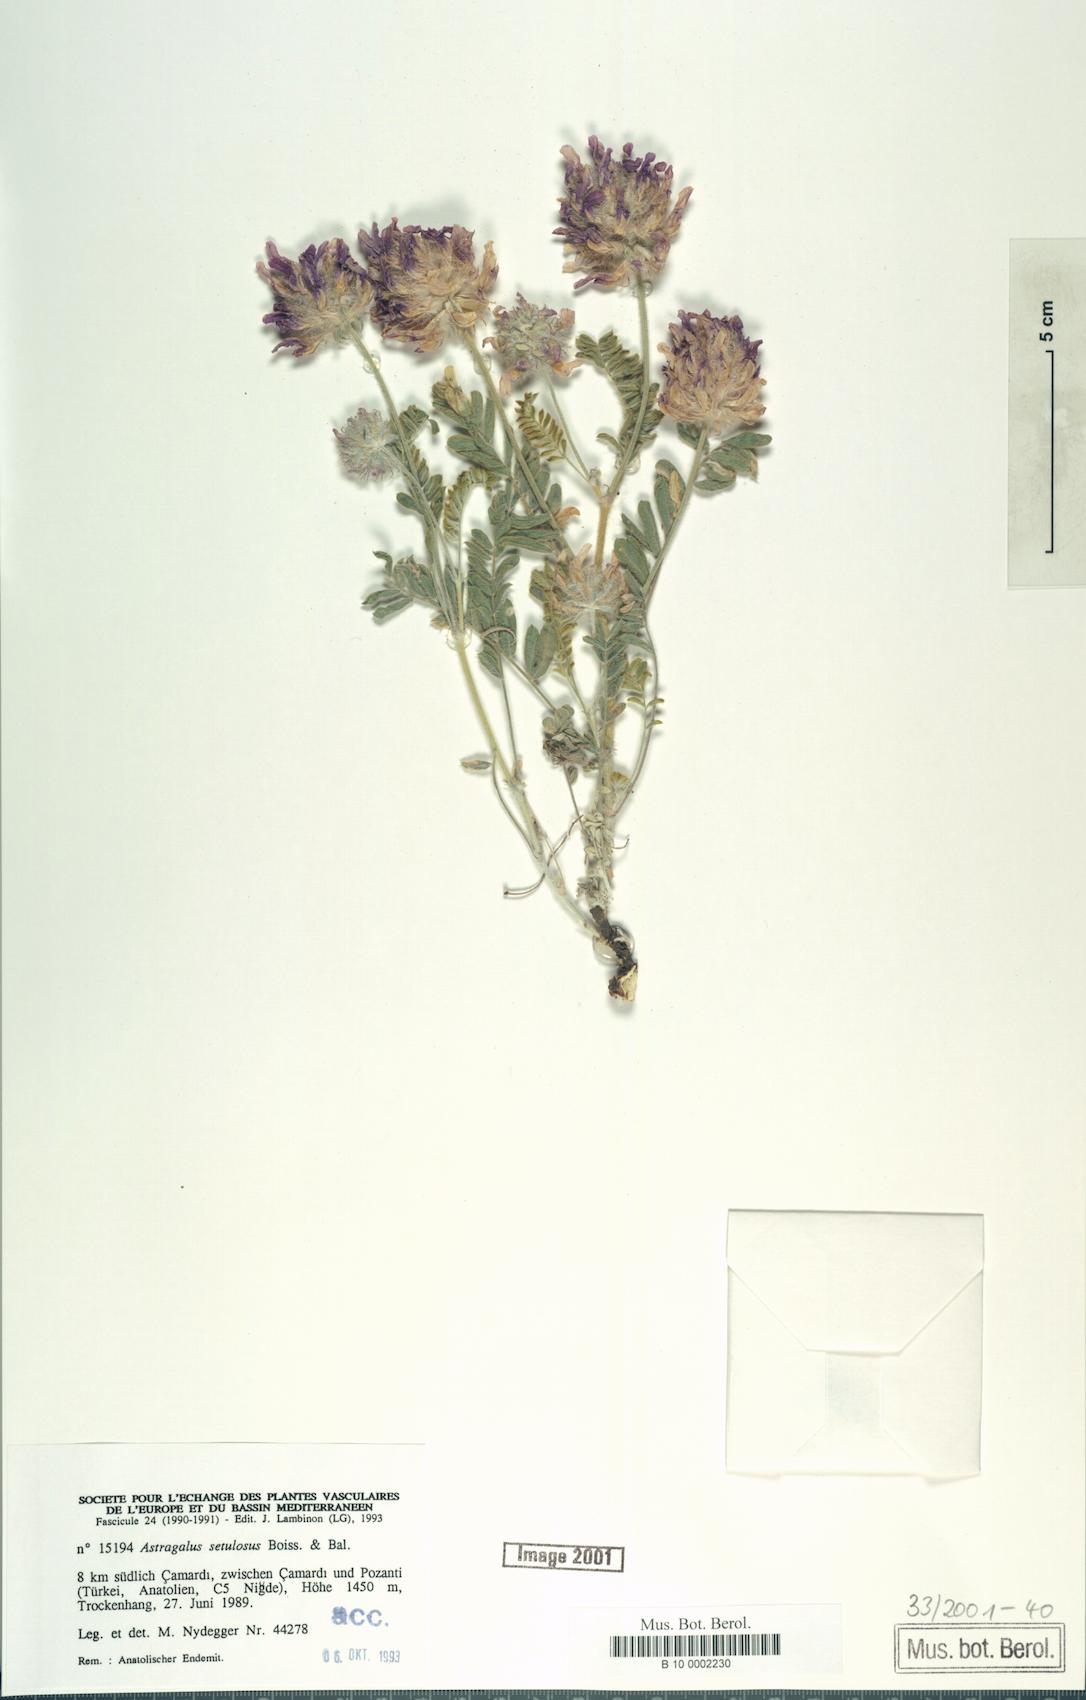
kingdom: Plantae
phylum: Tracheophyta
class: Magnoliopsida
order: Fabales
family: Fabaceae
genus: Astragalus
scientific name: Astragalus setulosus
